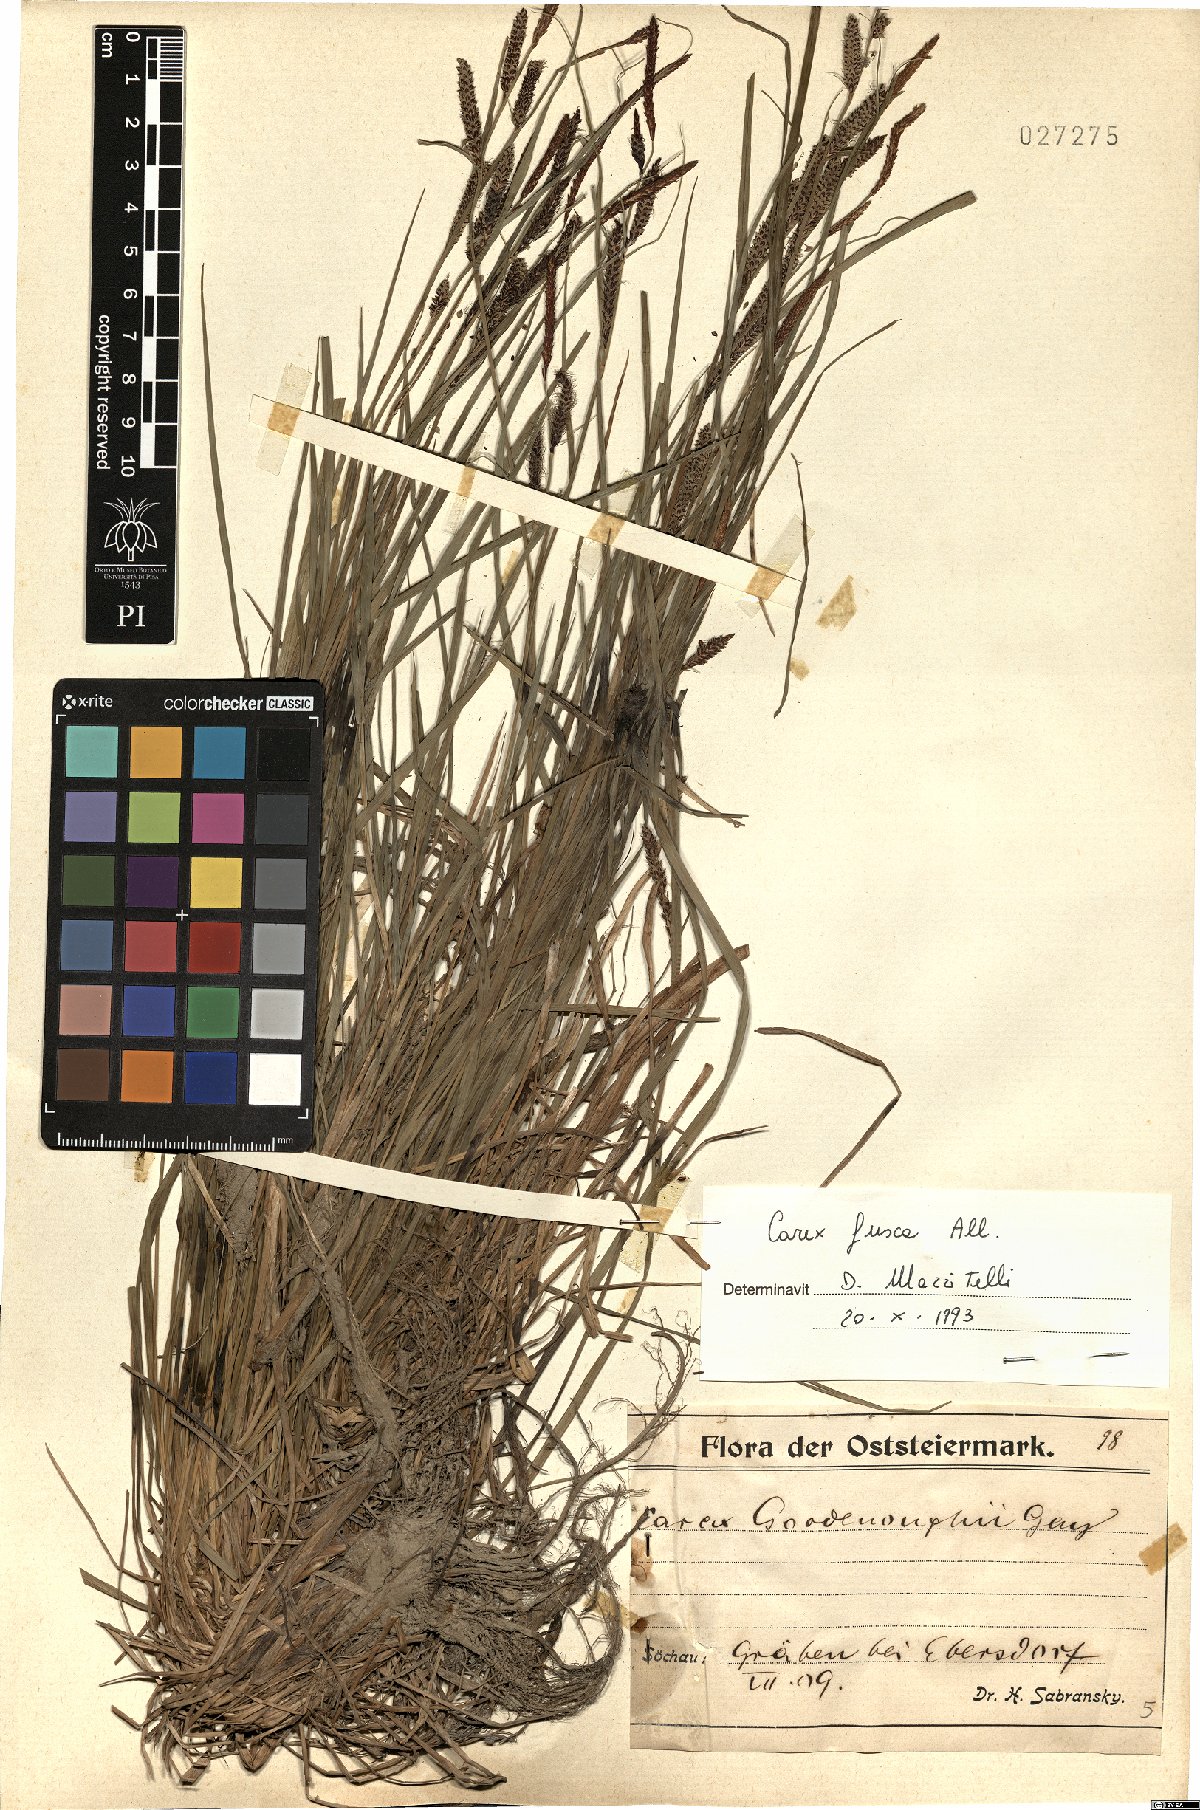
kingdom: Plantae
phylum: Tracheophyta
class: Liliopsida
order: Poales
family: Cyperaceae
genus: Carex
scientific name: Carex nigra
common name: Common sedge
